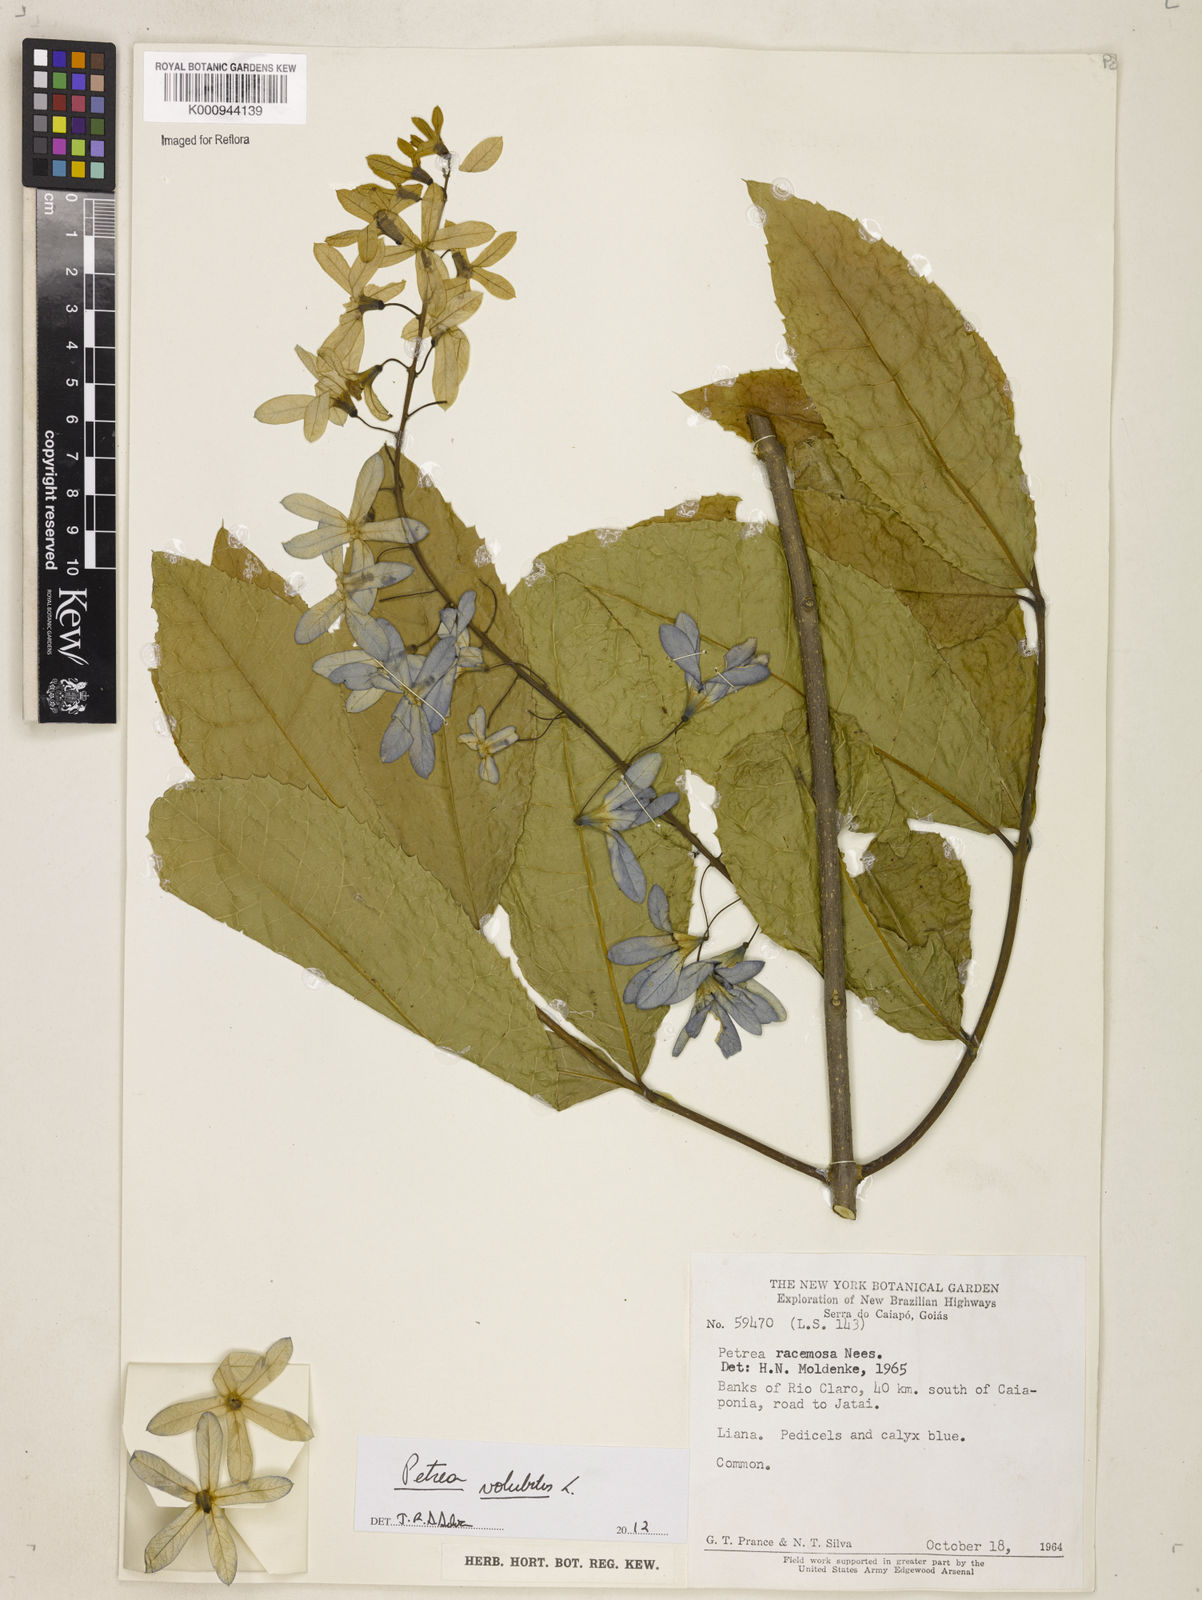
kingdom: Plantae
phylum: Tracheophyta
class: Magnoliopsida
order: Lamiales
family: Verbenaceae
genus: Petrea
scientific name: Petrea
